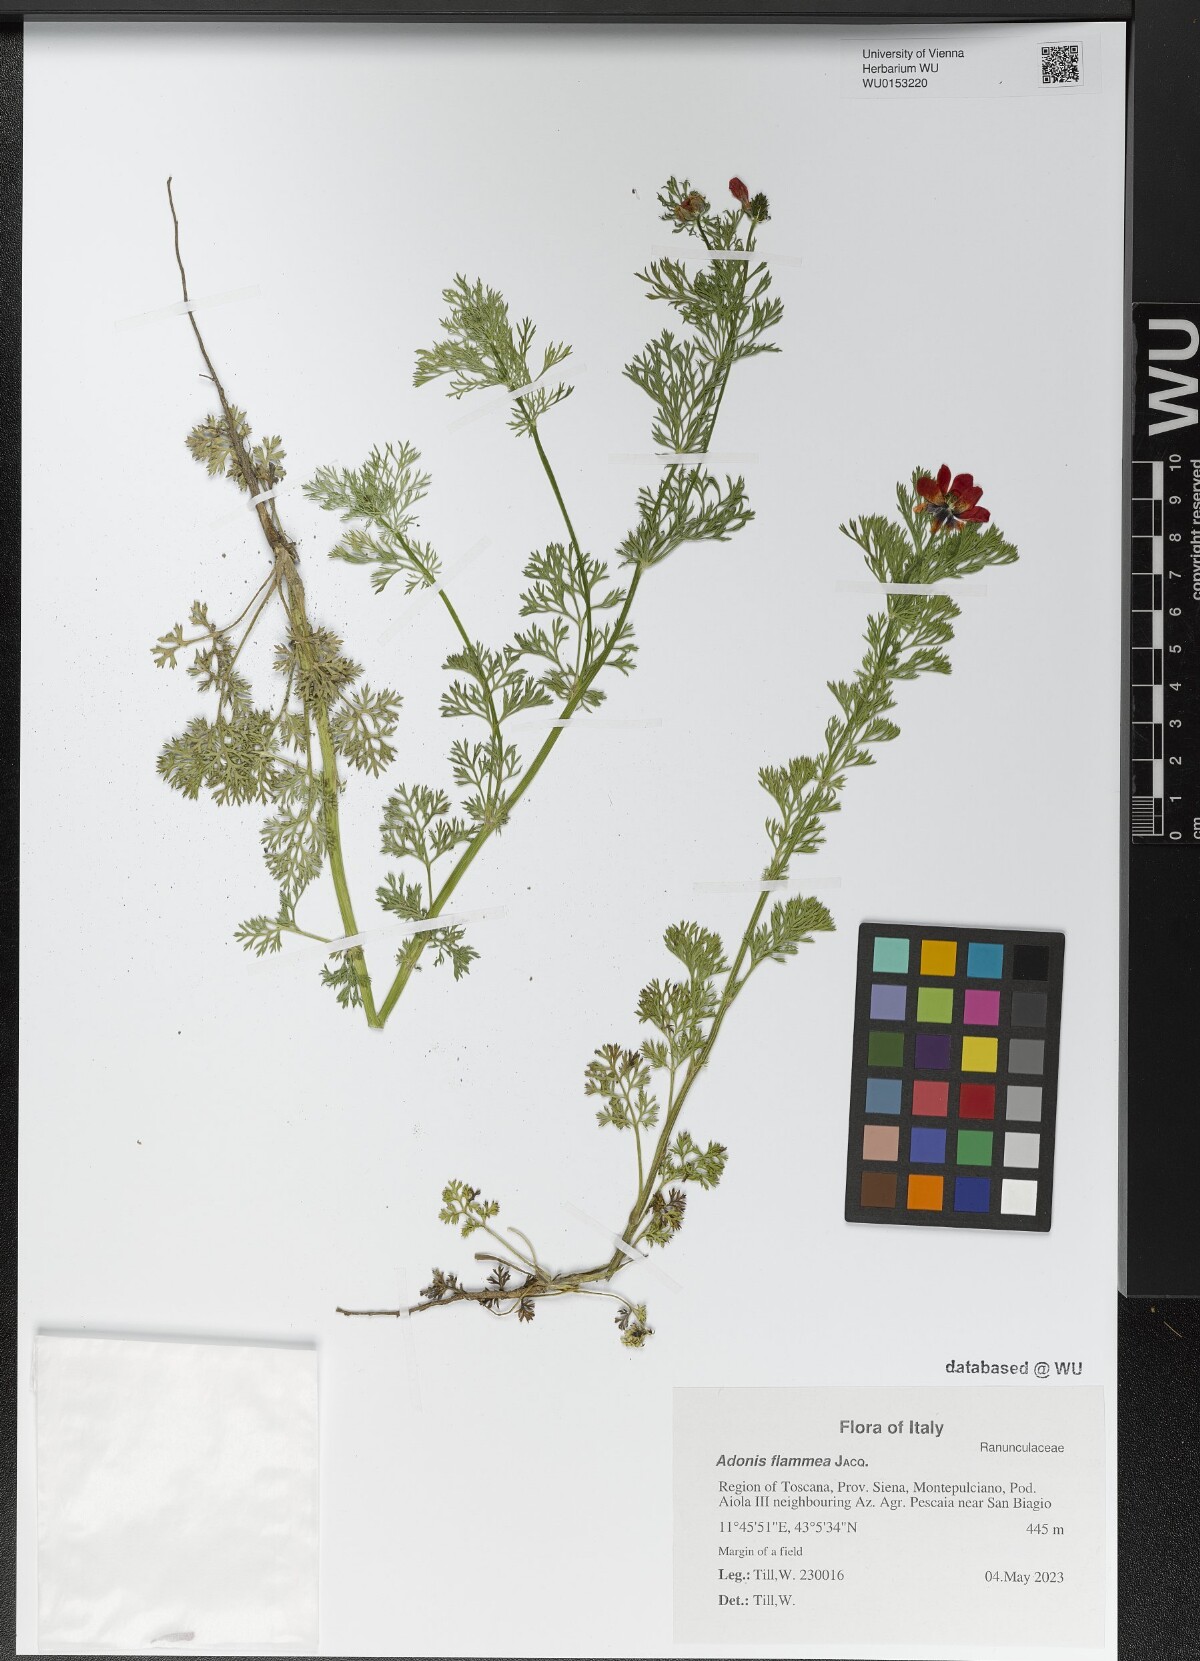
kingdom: Plantae
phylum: Tracheophyta
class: Magnoliopsida
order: Ranunculales
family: Ranunculaceae
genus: Adonis
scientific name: Adonis flammea
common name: Large pheasant's-eye
